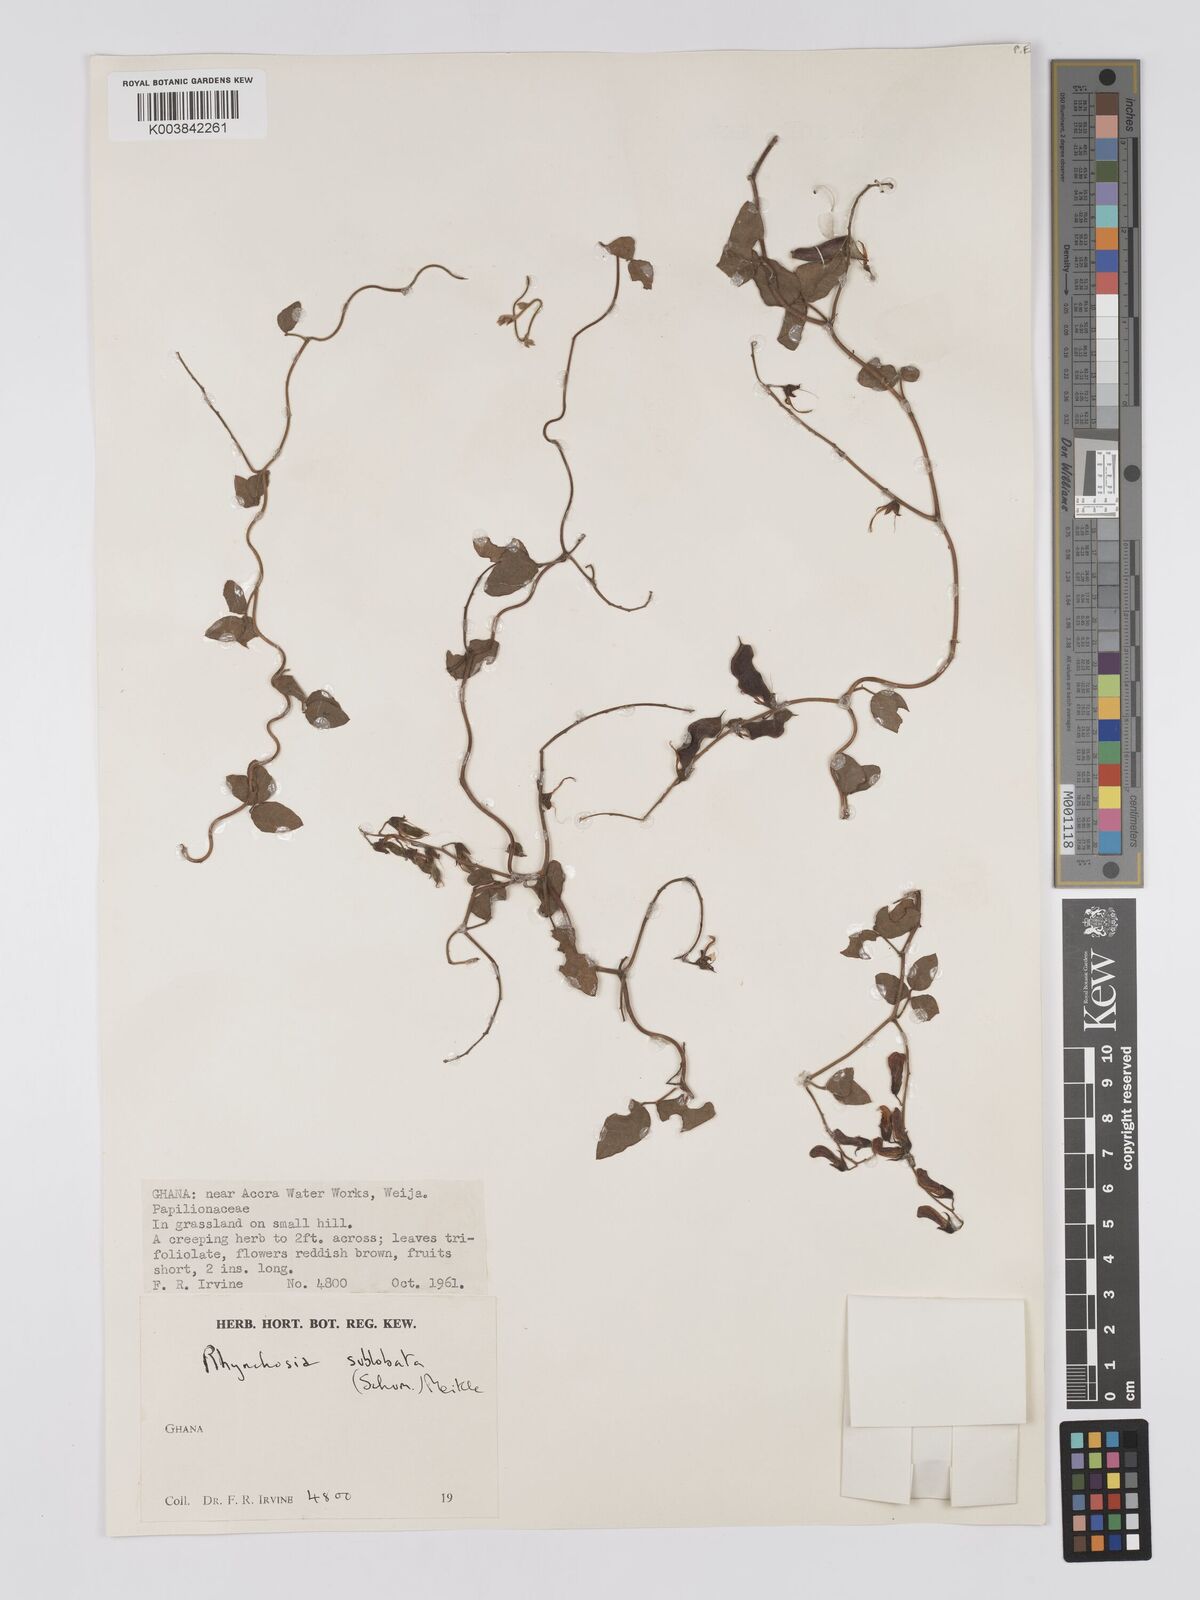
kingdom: Plantae
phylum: Tracheophyta
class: Magnoliopsida
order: Fabales
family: Fabaceae
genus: Rhynchosia
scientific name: Rhynchosia sublobata
